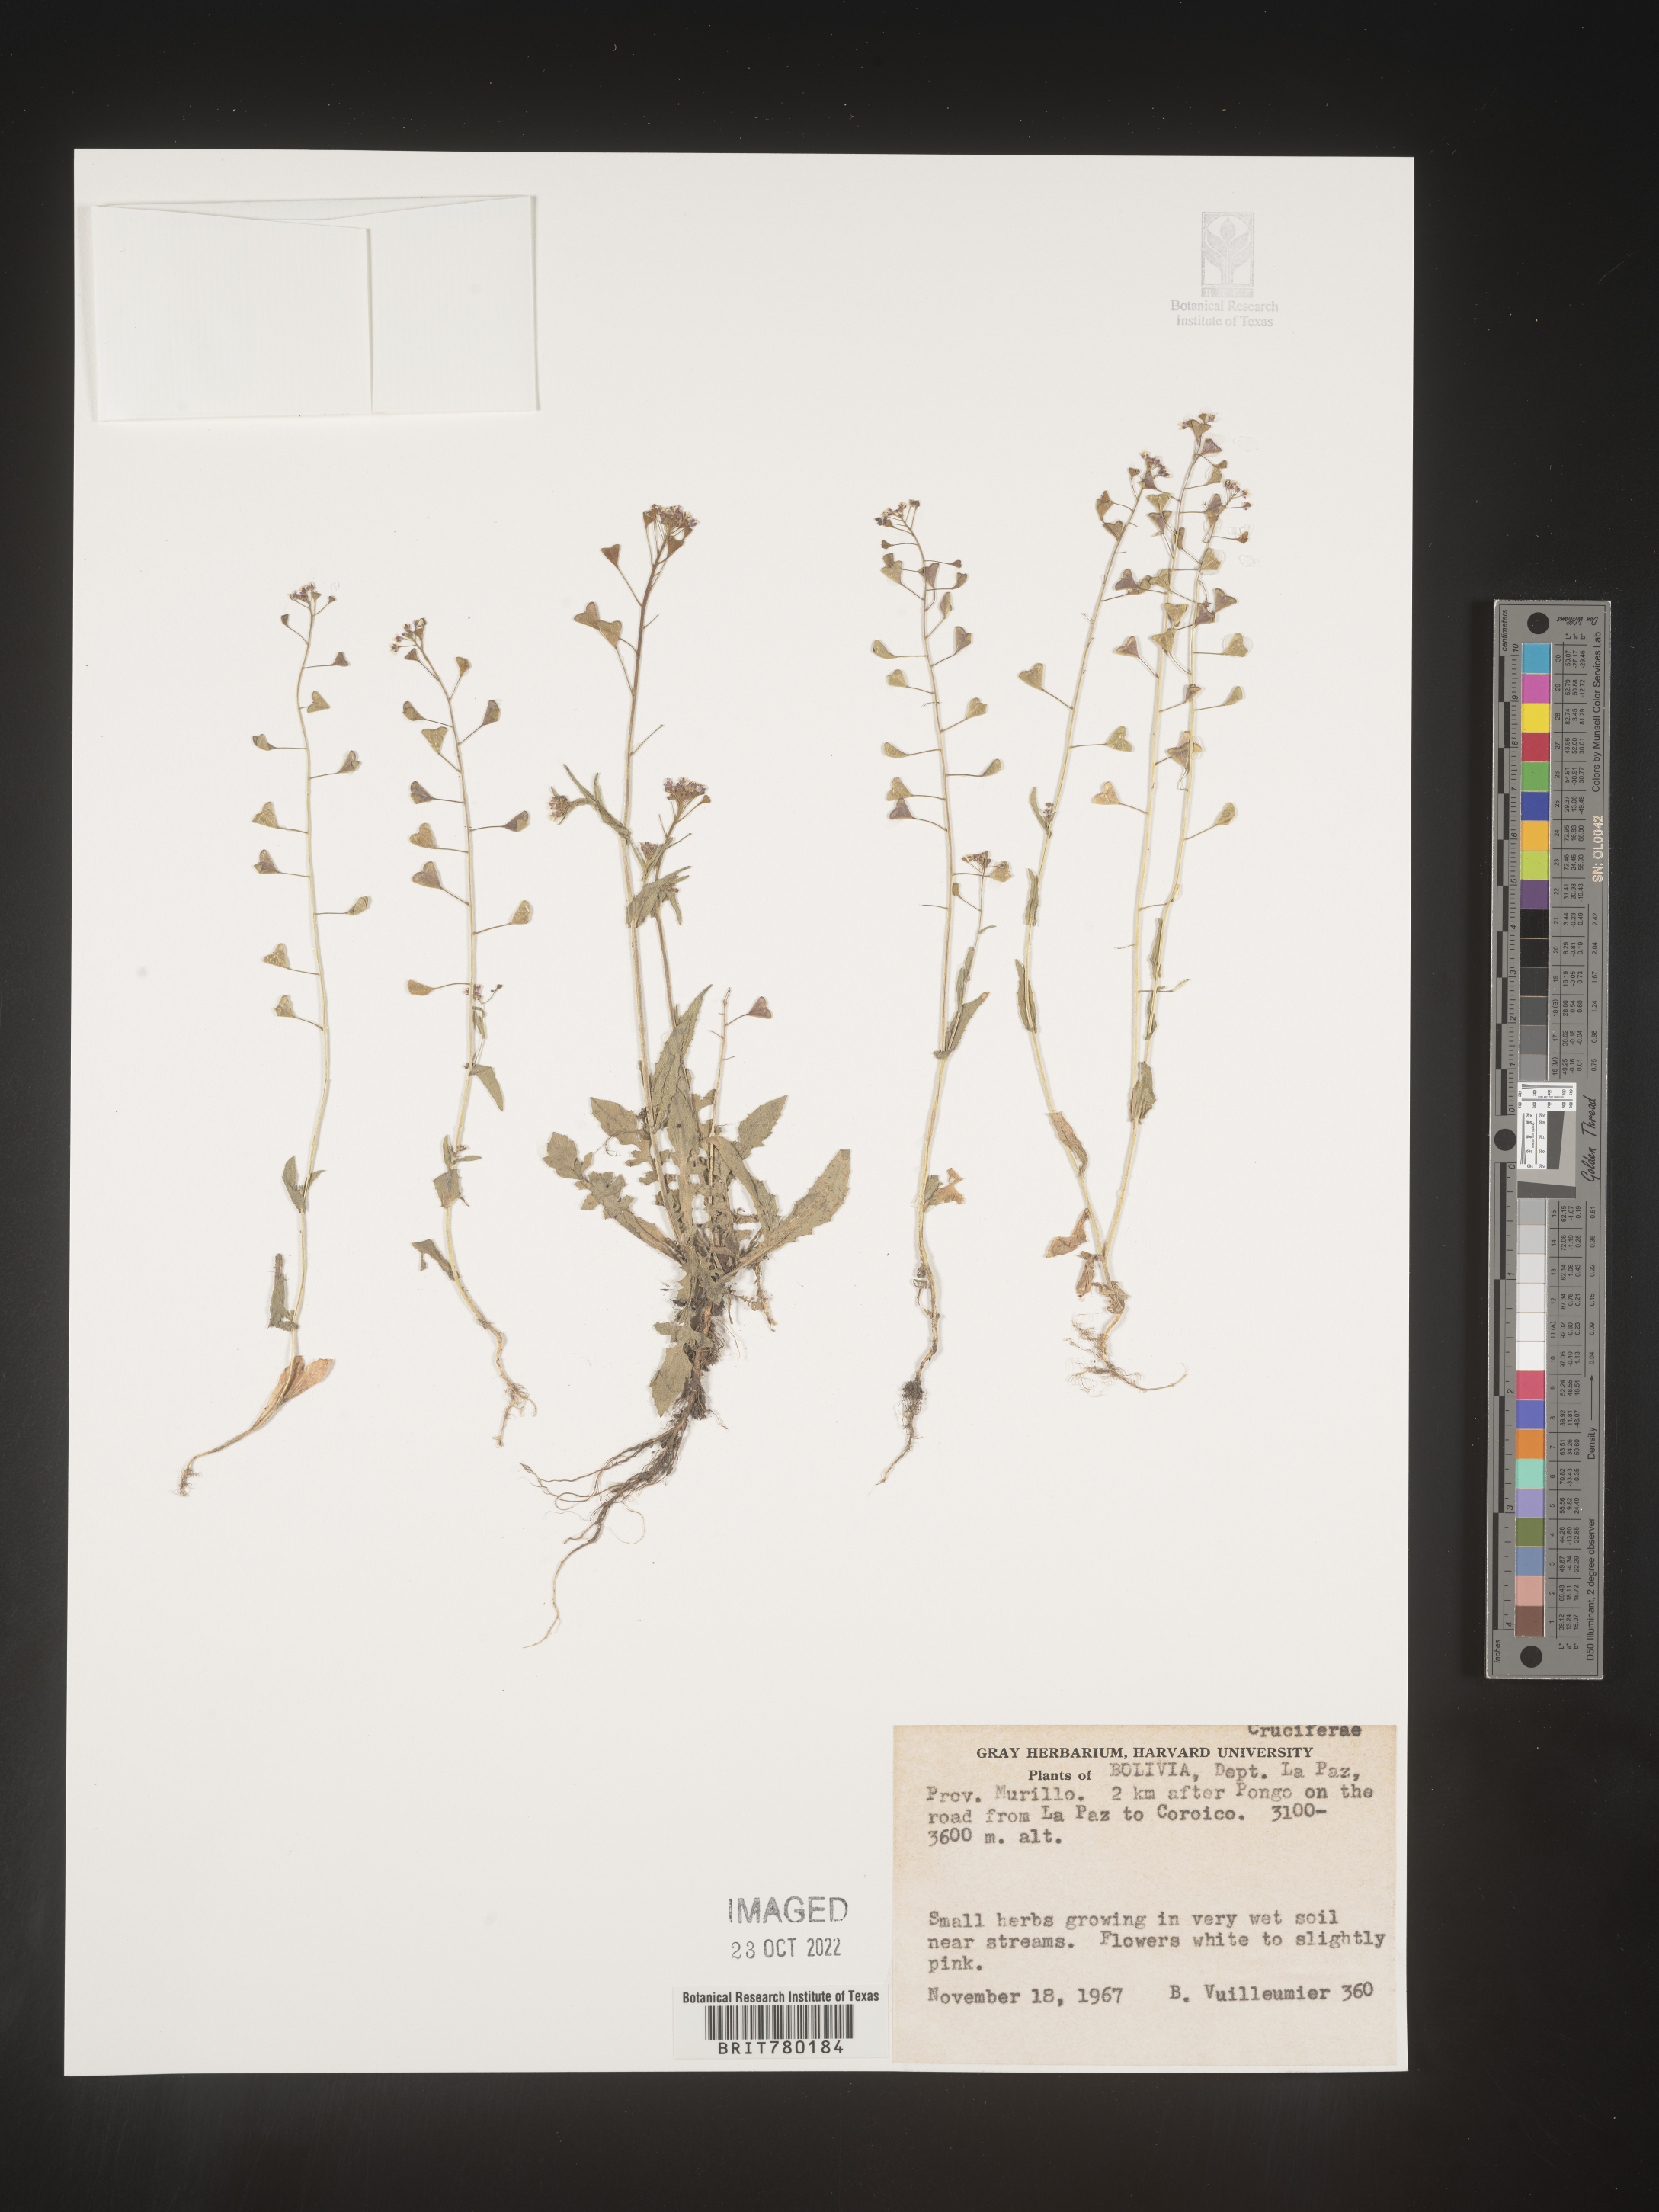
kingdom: Plantae
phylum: Tracheophyta
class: Magnoliopsida
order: Brassicales
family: Brassicaceae
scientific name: Brassicaceae
